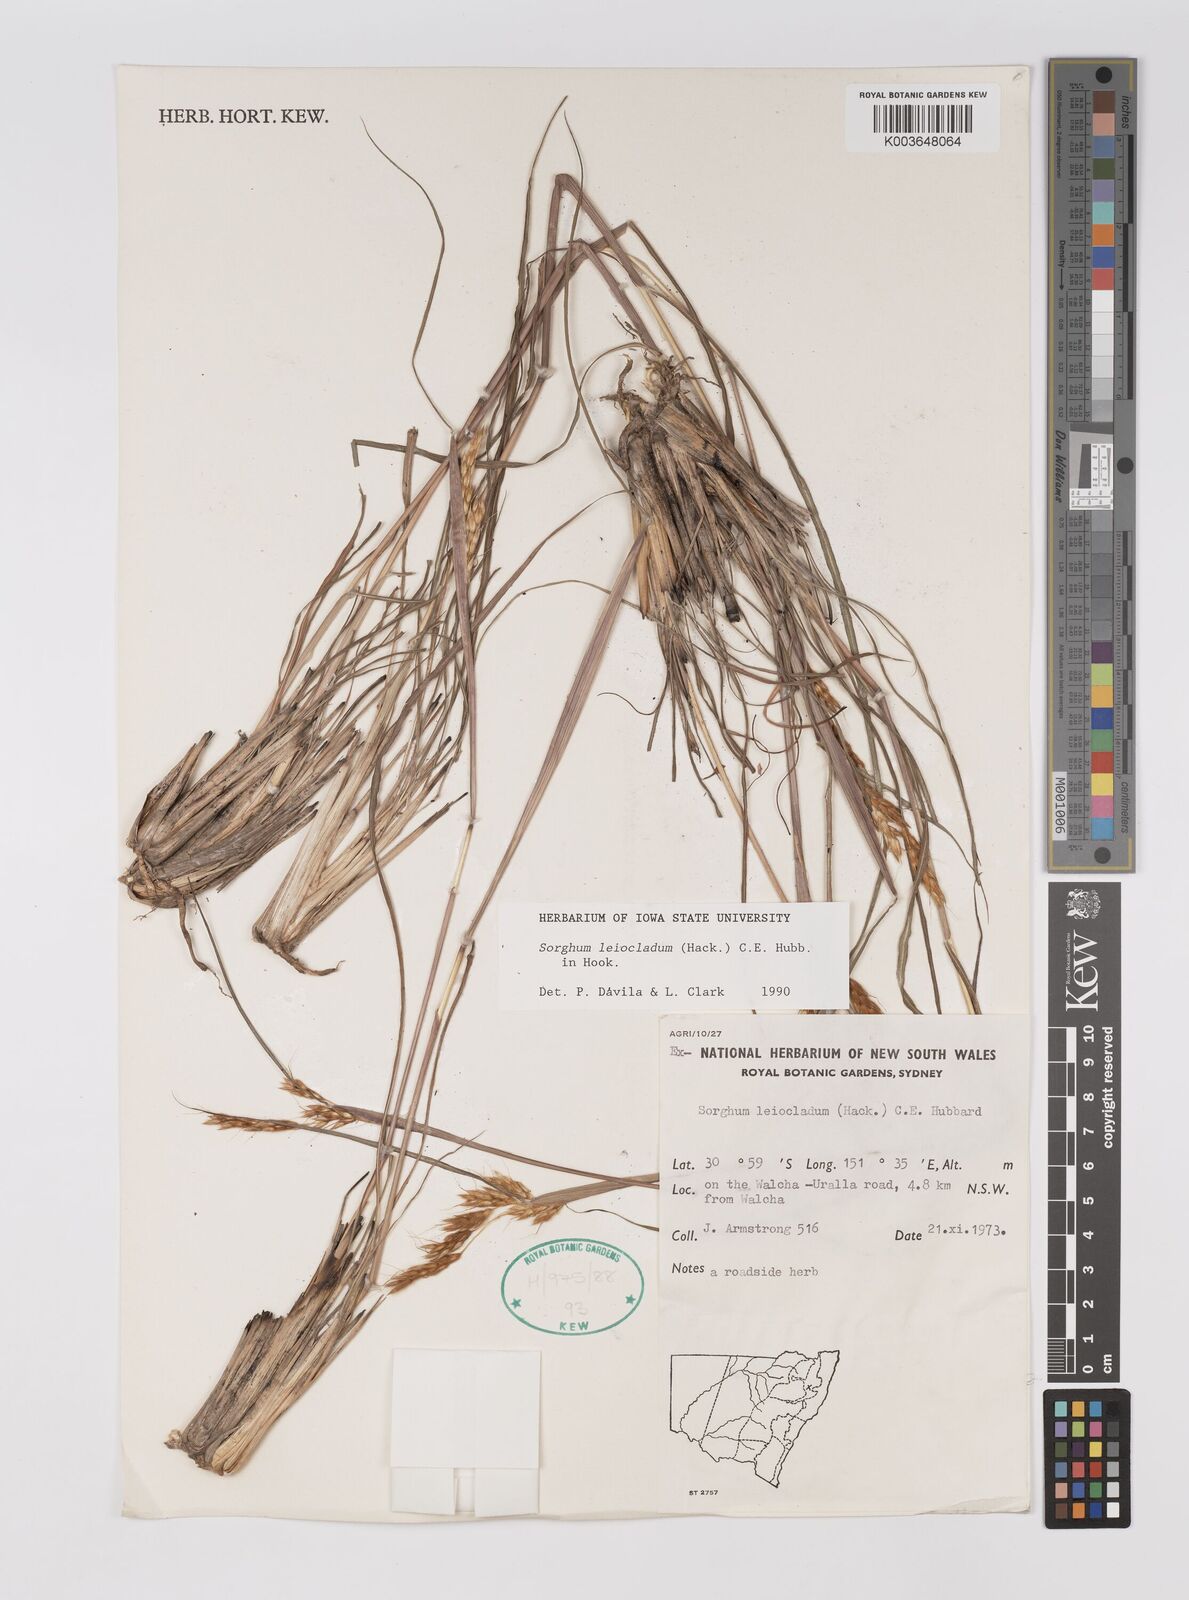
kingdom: Plantae
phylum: Tracheophyta
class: Liliopsida
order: Poales
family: Poaceae
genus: Sarga
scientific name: Sarga leioclada
